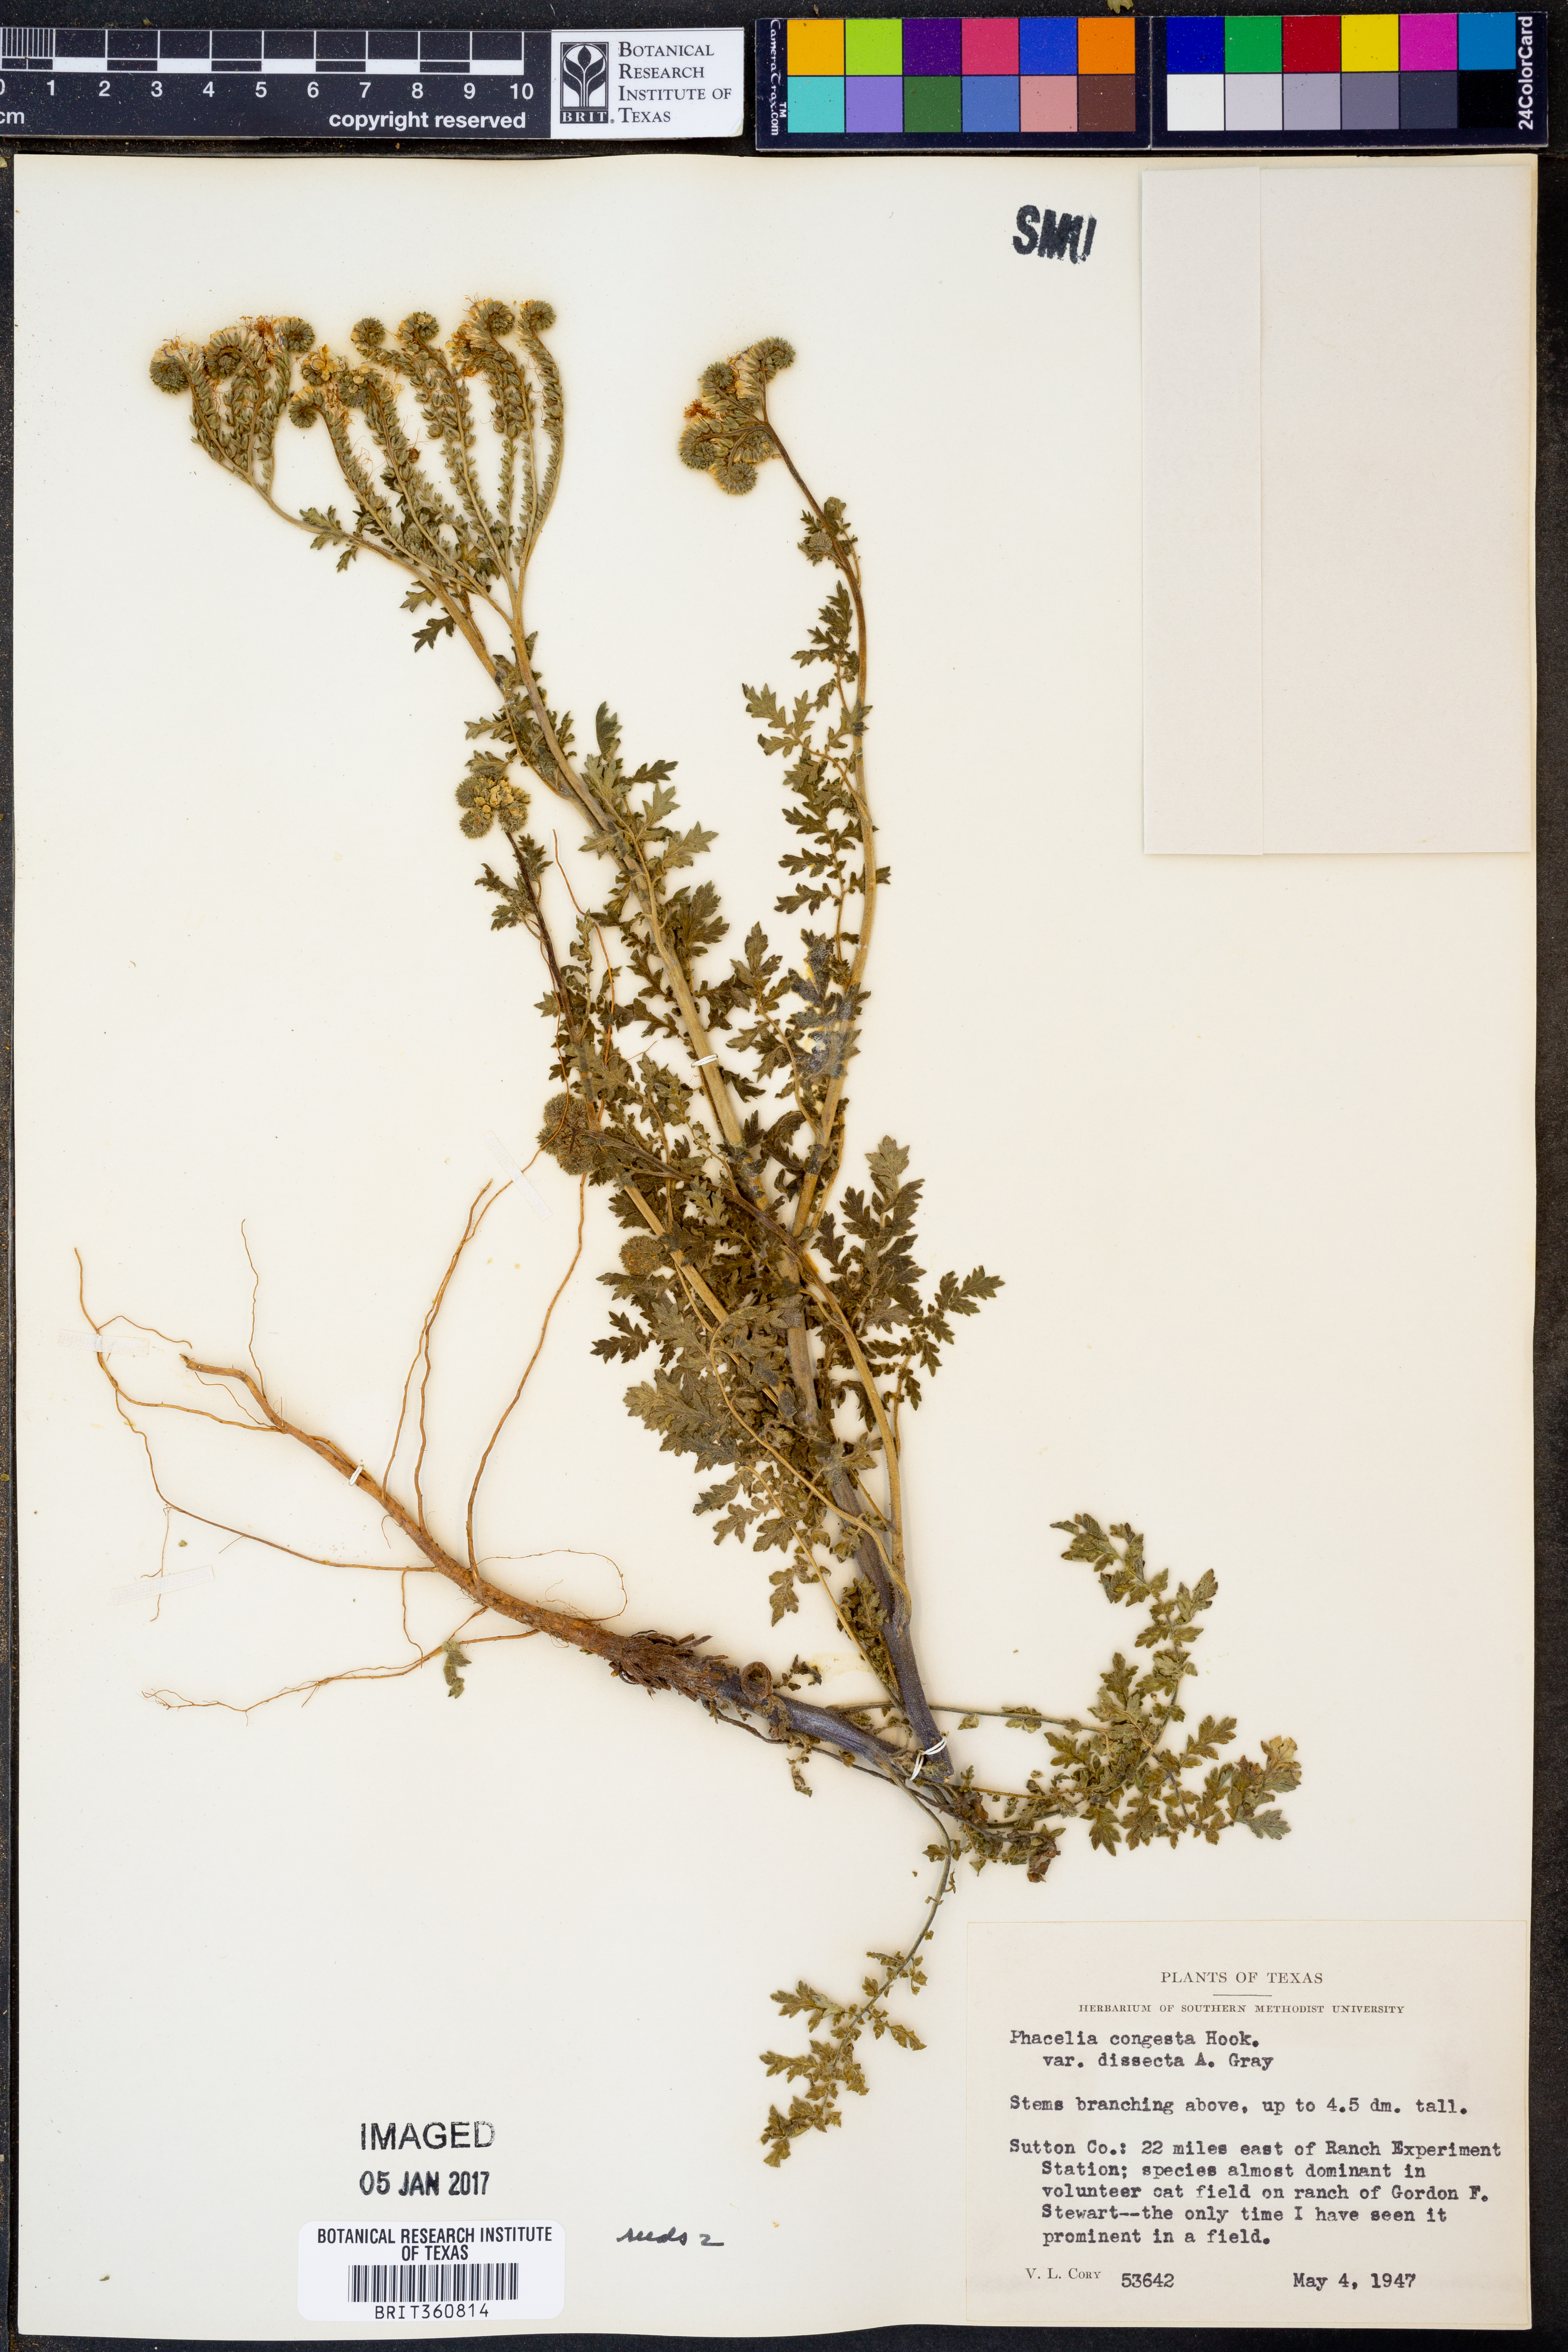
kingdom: Plantae
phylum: Tracheophyta
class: Magnoliopsida
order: Boraginales
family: Hydrophyllaceae
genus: Phacelia
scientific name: Phacelia congesta
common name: Blue curls
